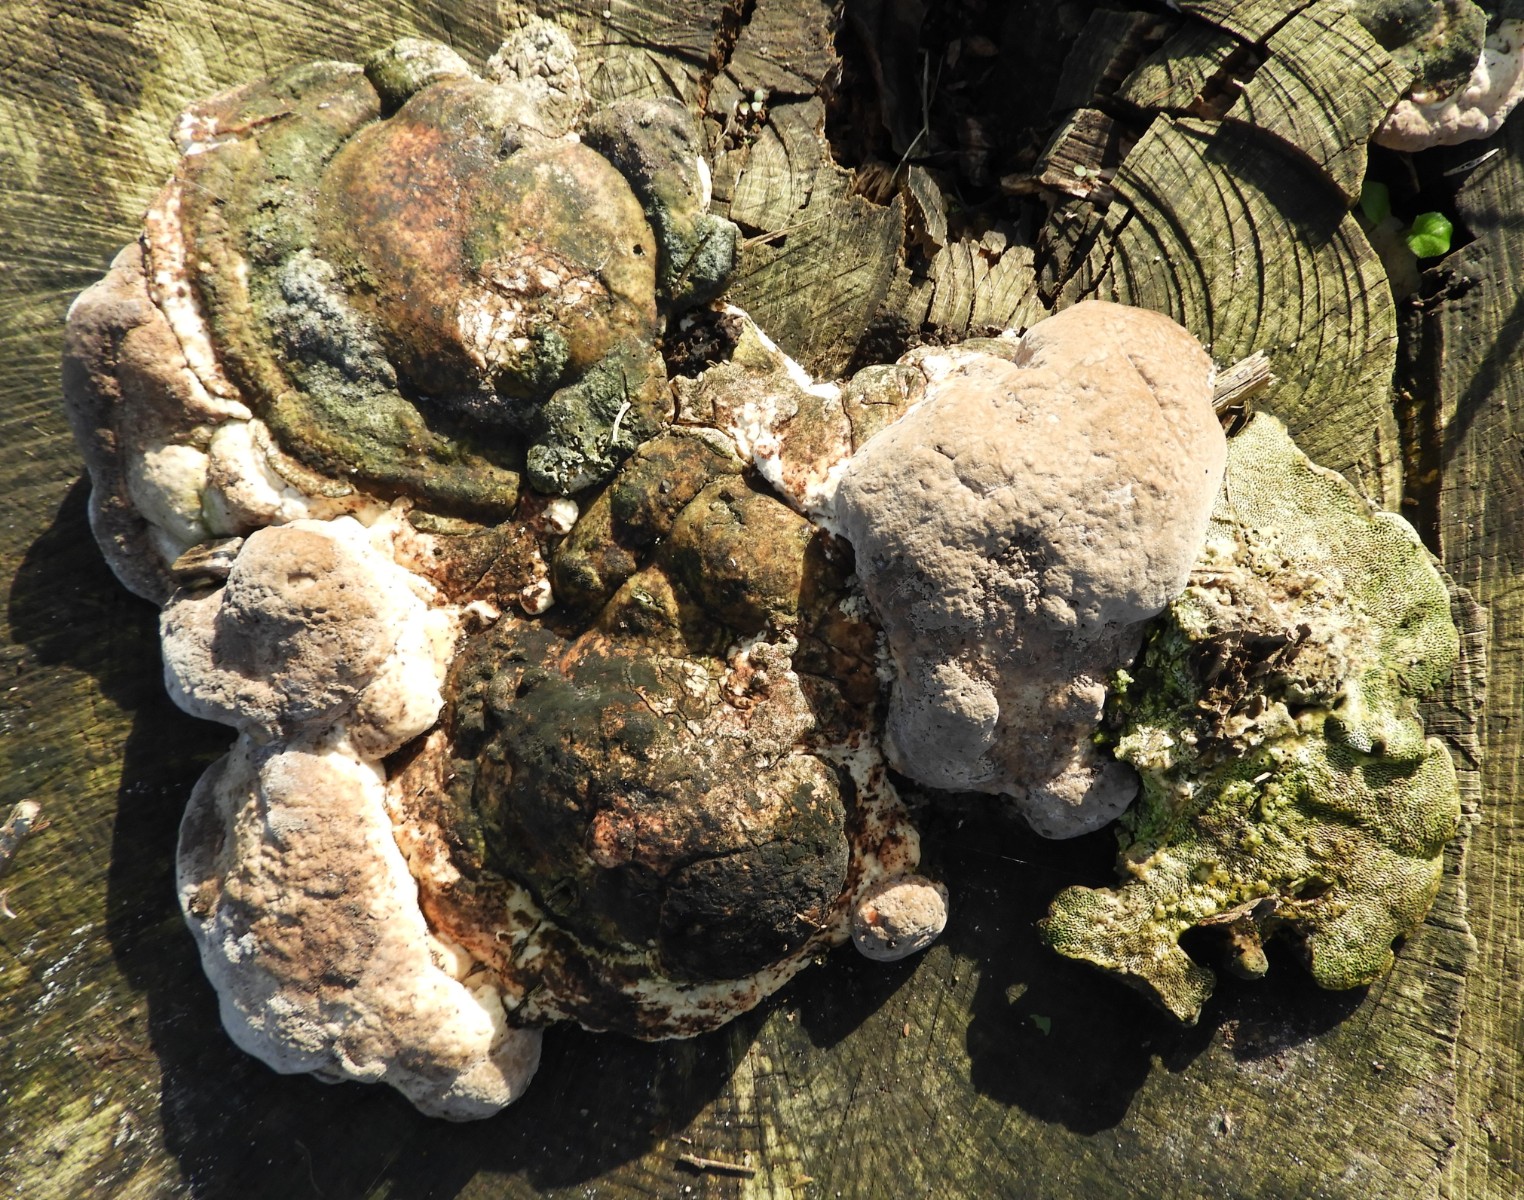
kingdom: Fungi
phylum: Basidiomycota
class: Agaricomycetes
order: Polyporales
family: Fomitopsidaceae
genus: Daedalea
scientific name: Daedalea quercina
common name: ege-labyrintsvamp
